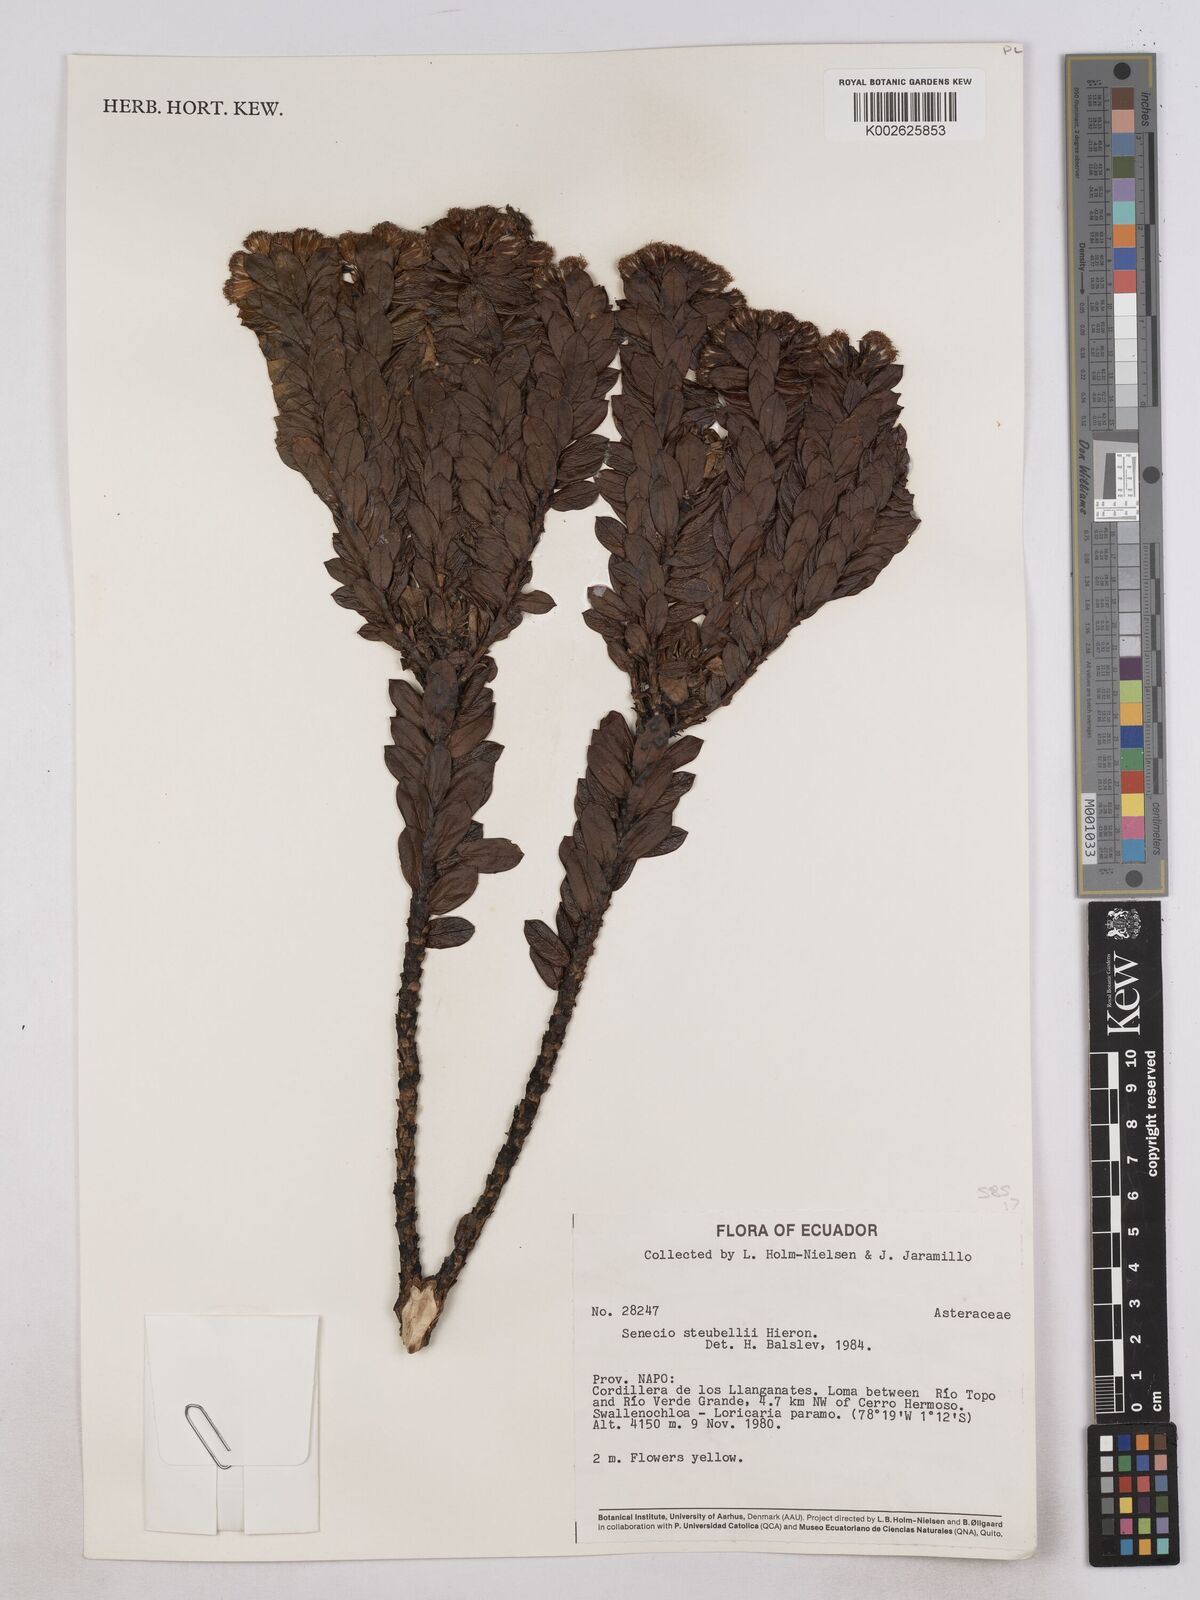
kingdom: Plantae
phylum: Tracheophyta
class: Magnoliopsida
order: Asterales
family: Asteraceae
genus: Monticalia
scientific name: Monticalia stuebelii
